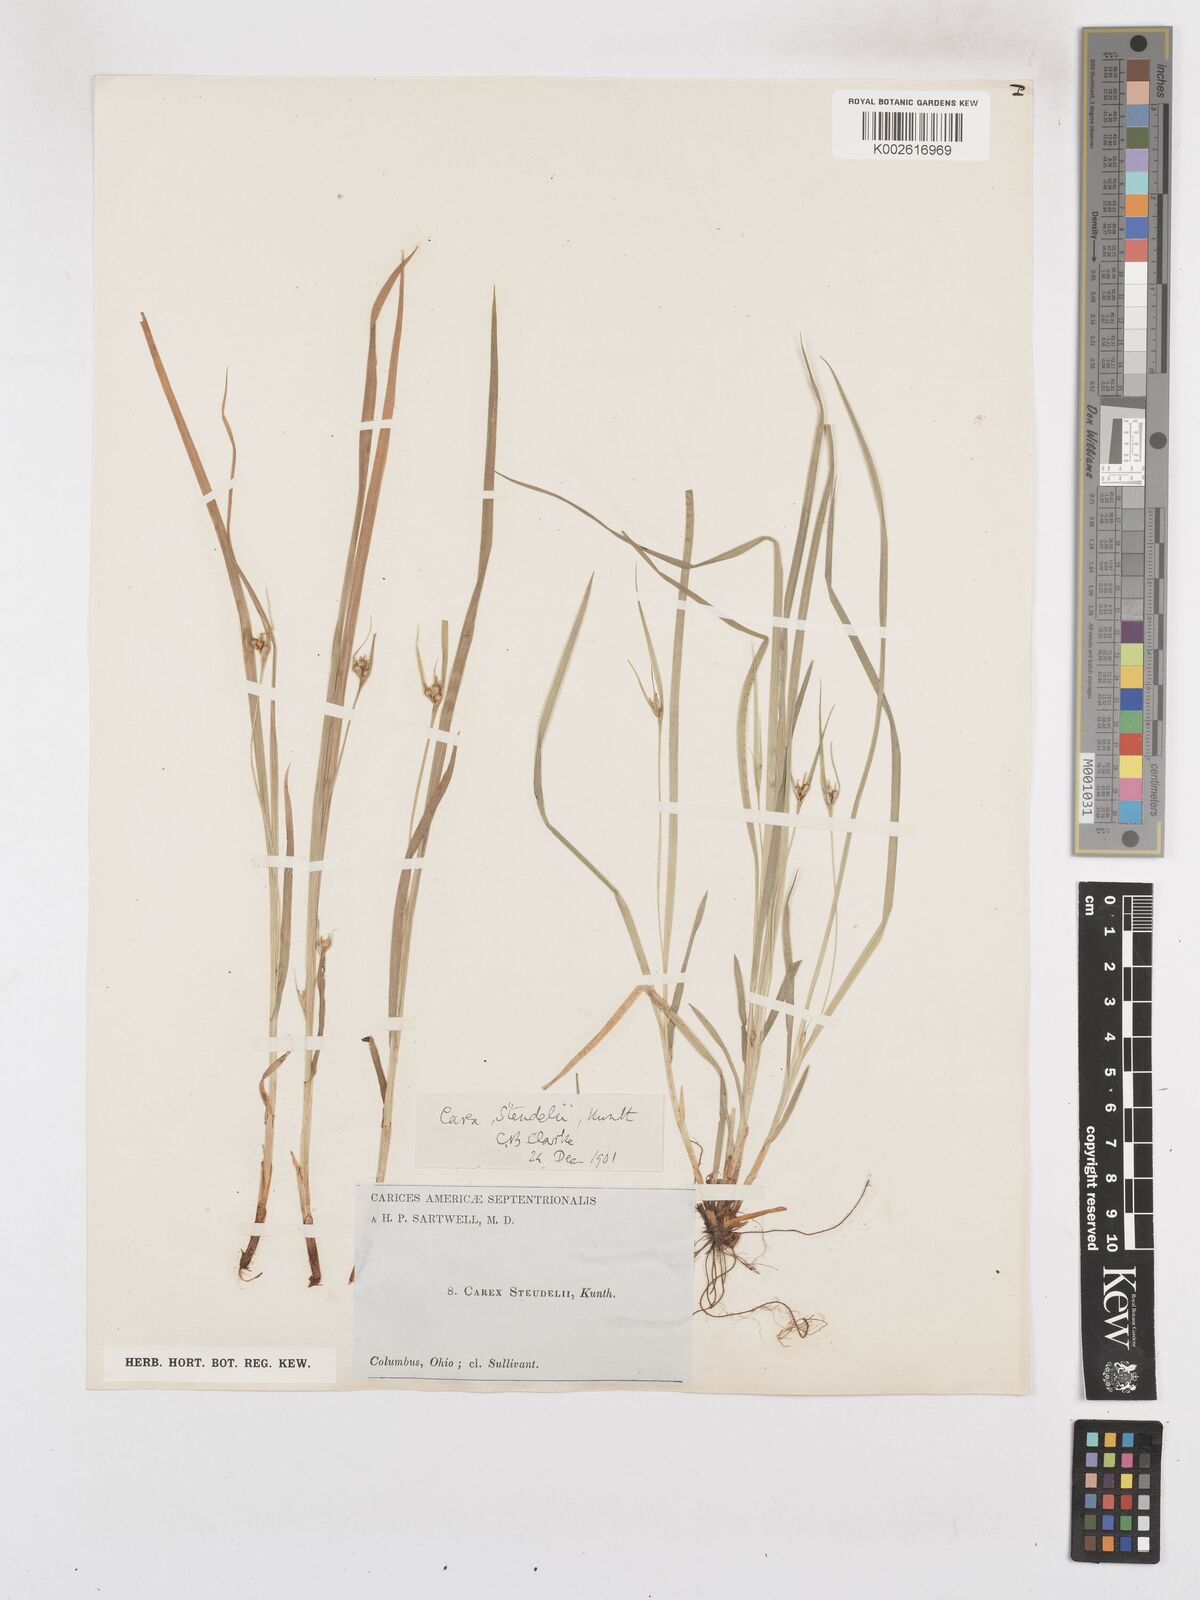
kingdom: Plantae
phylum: Tracheophyta
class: Liliopsida
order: Poales
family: Cyperaceae
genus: Carex
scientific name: Carex jamesii
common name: Grass sedge
